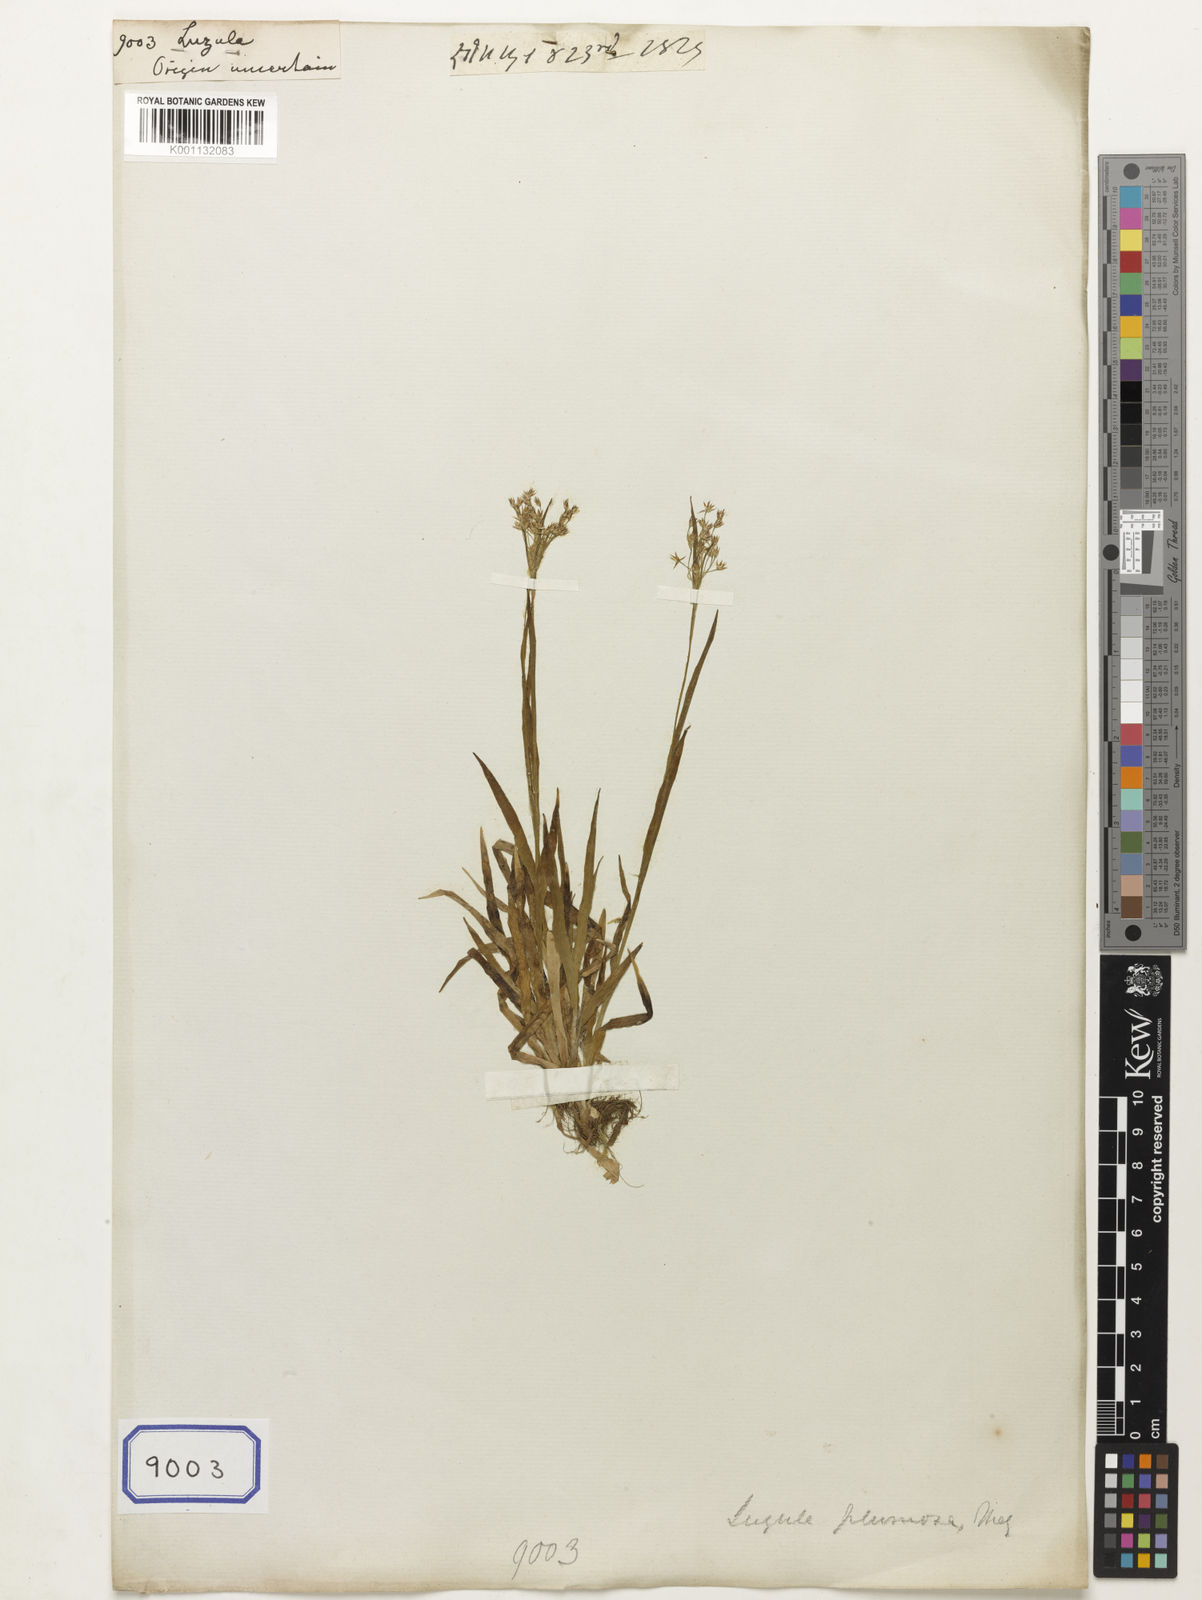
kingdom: Plantae
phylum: Tracheophyta
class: Liliopsida
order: Poales
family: Juncaceae
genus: Luzula
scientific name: Luzula
